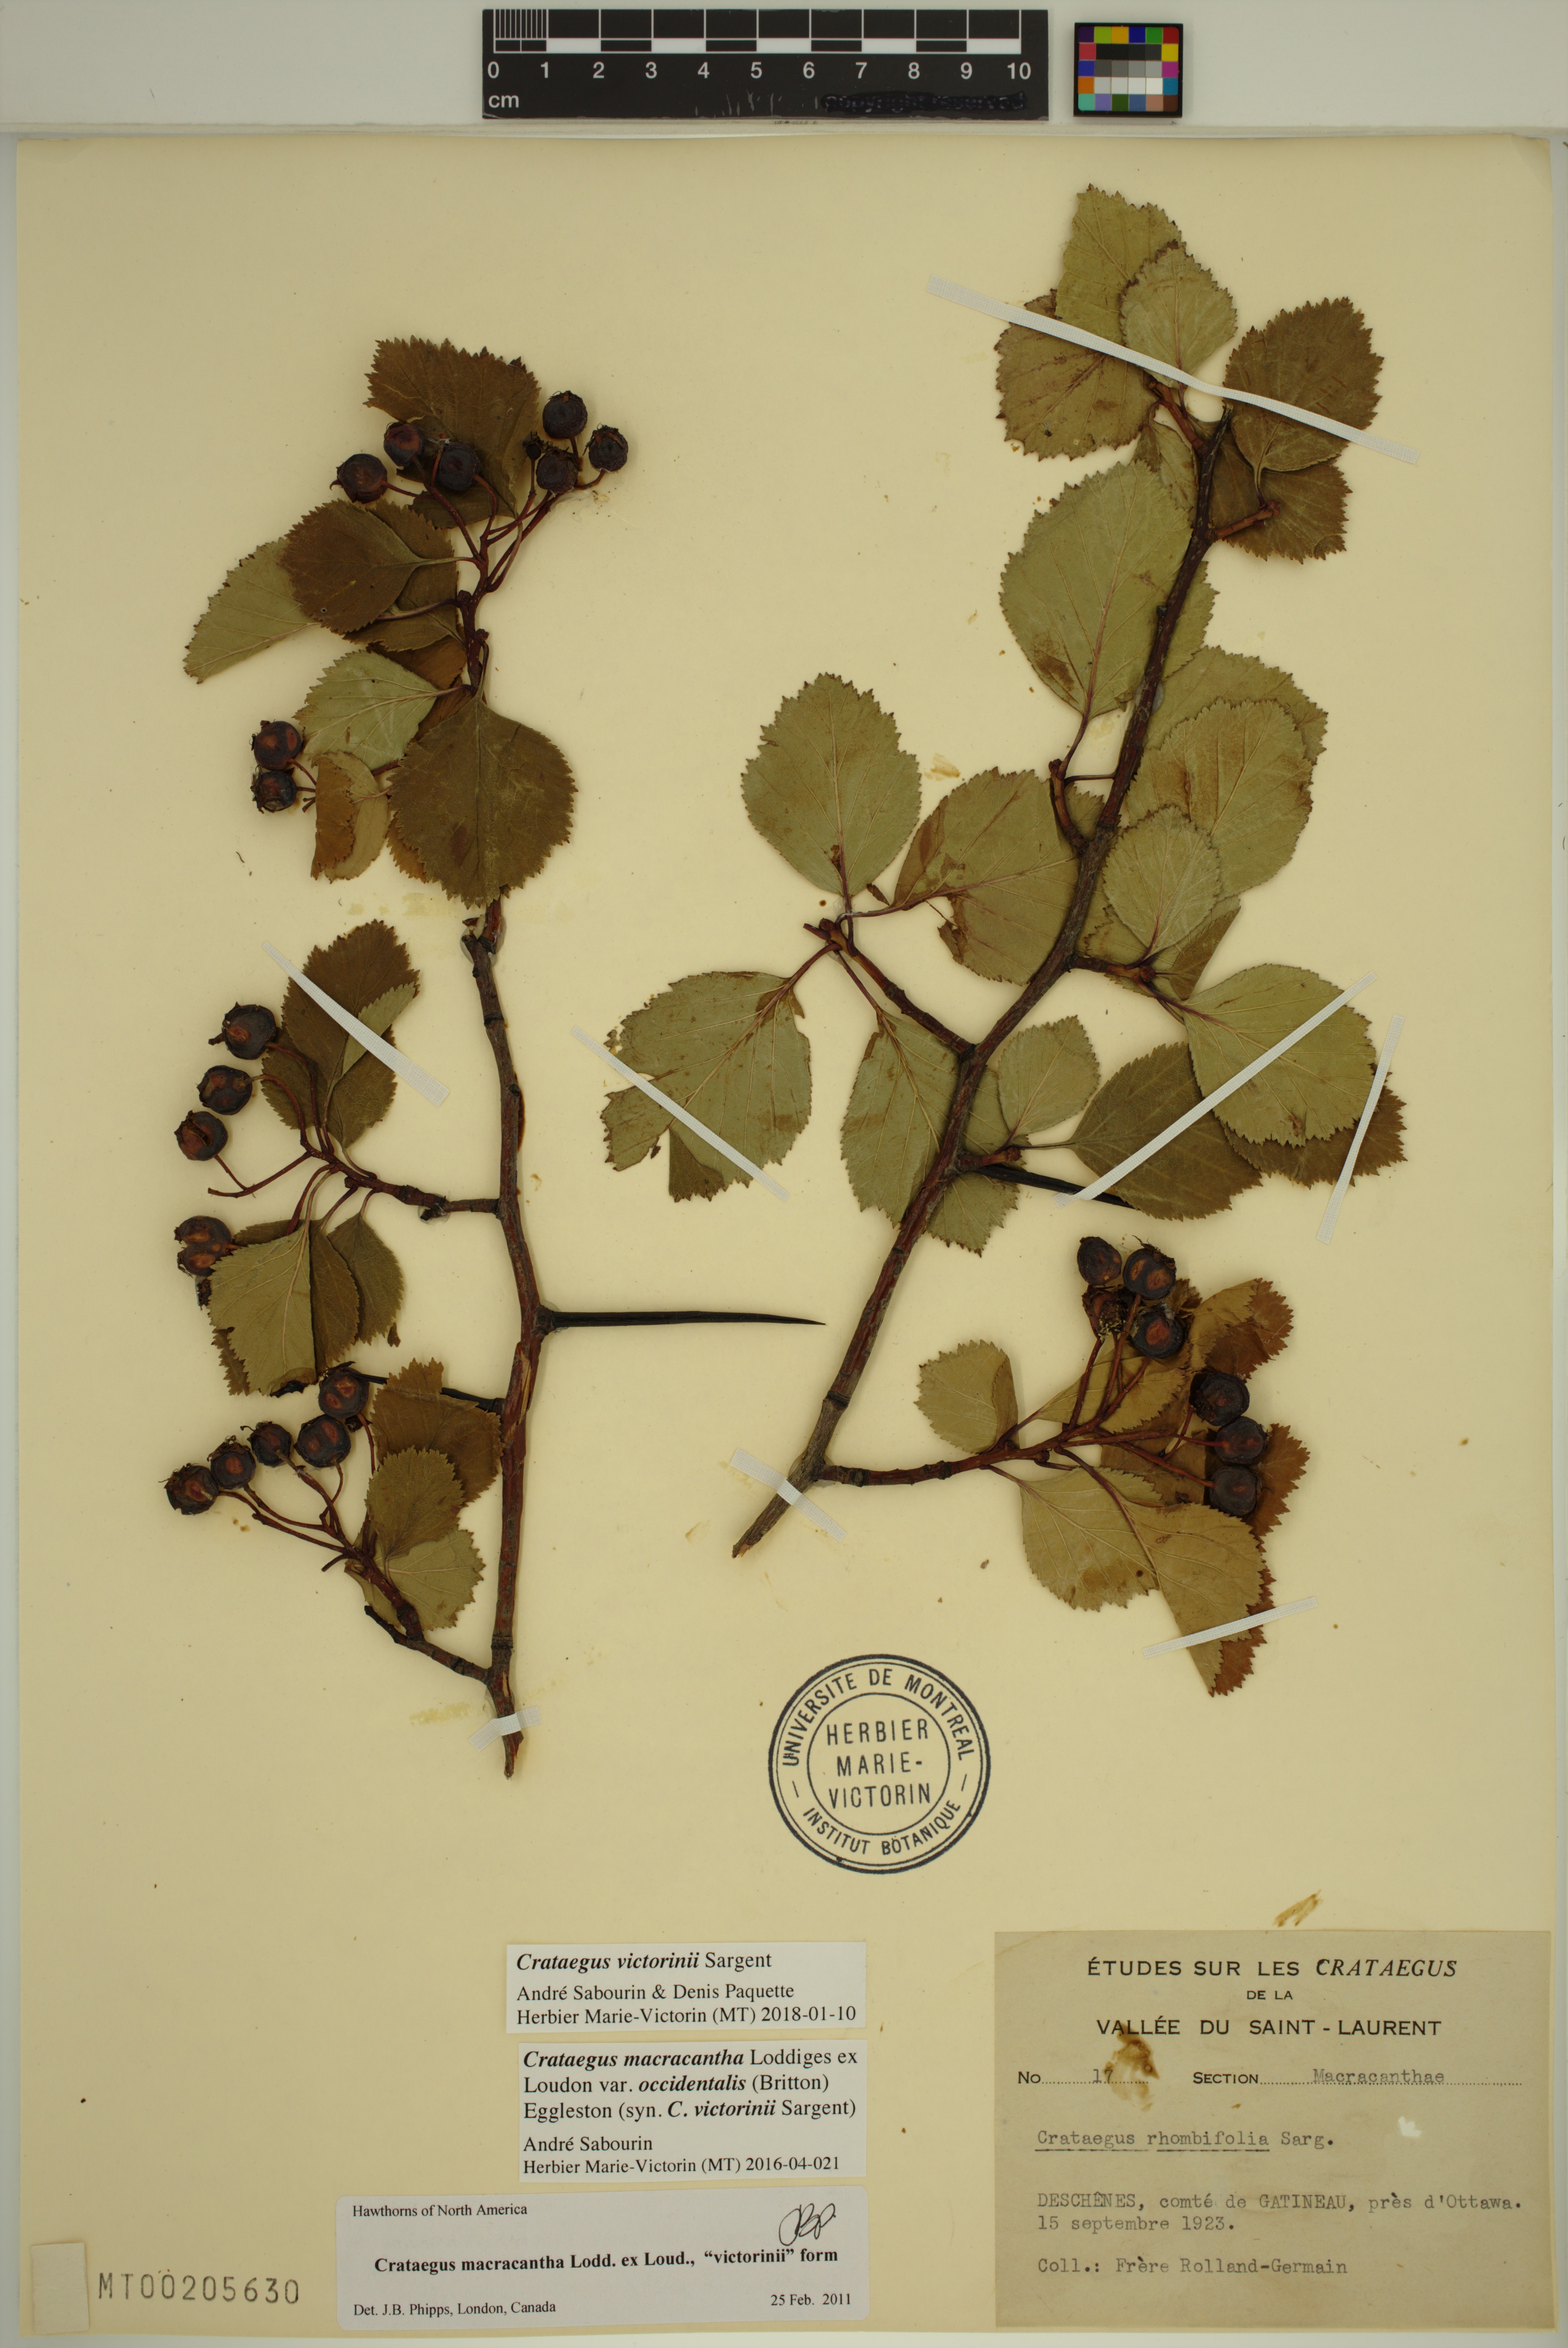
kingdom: Plantae
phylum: Tracheophyta
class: Magnoliopsida
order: Rosales
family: Rosaceae
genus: Crataegus
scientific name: Crataegus macracantha
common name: Large-thorn hawthorn
